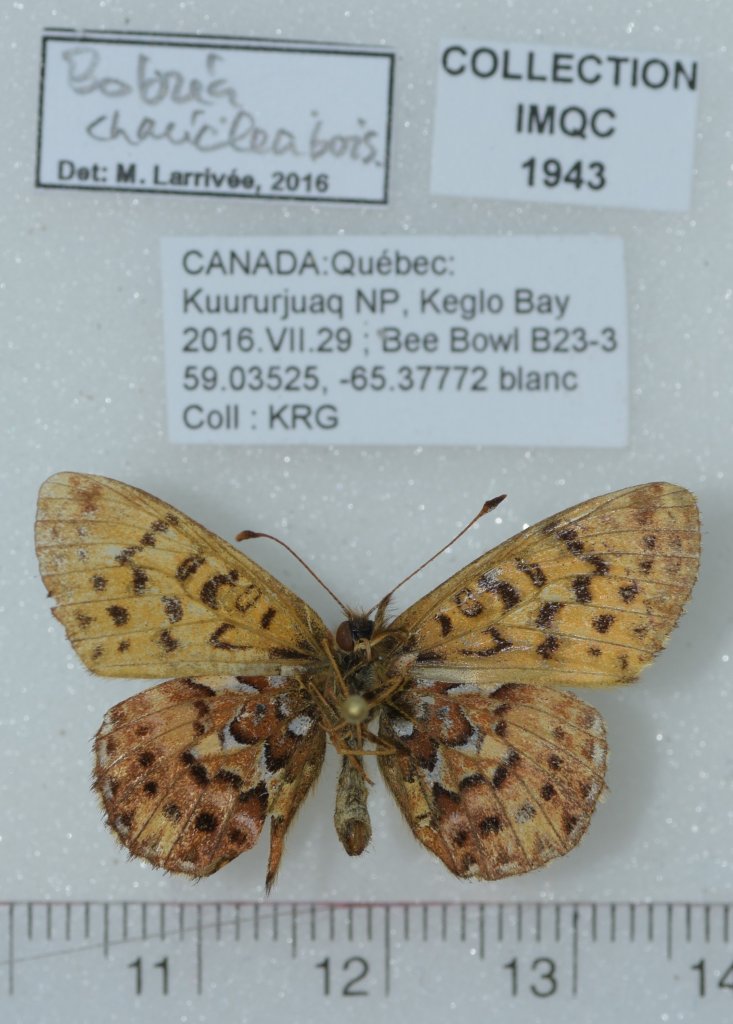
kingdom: Animalia
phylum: Arthropoda
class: Insecta
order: Lepidoptera
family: Nymphalidae
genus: Boloria
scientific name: Boloria chariclea
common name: Arctic Fritillary
